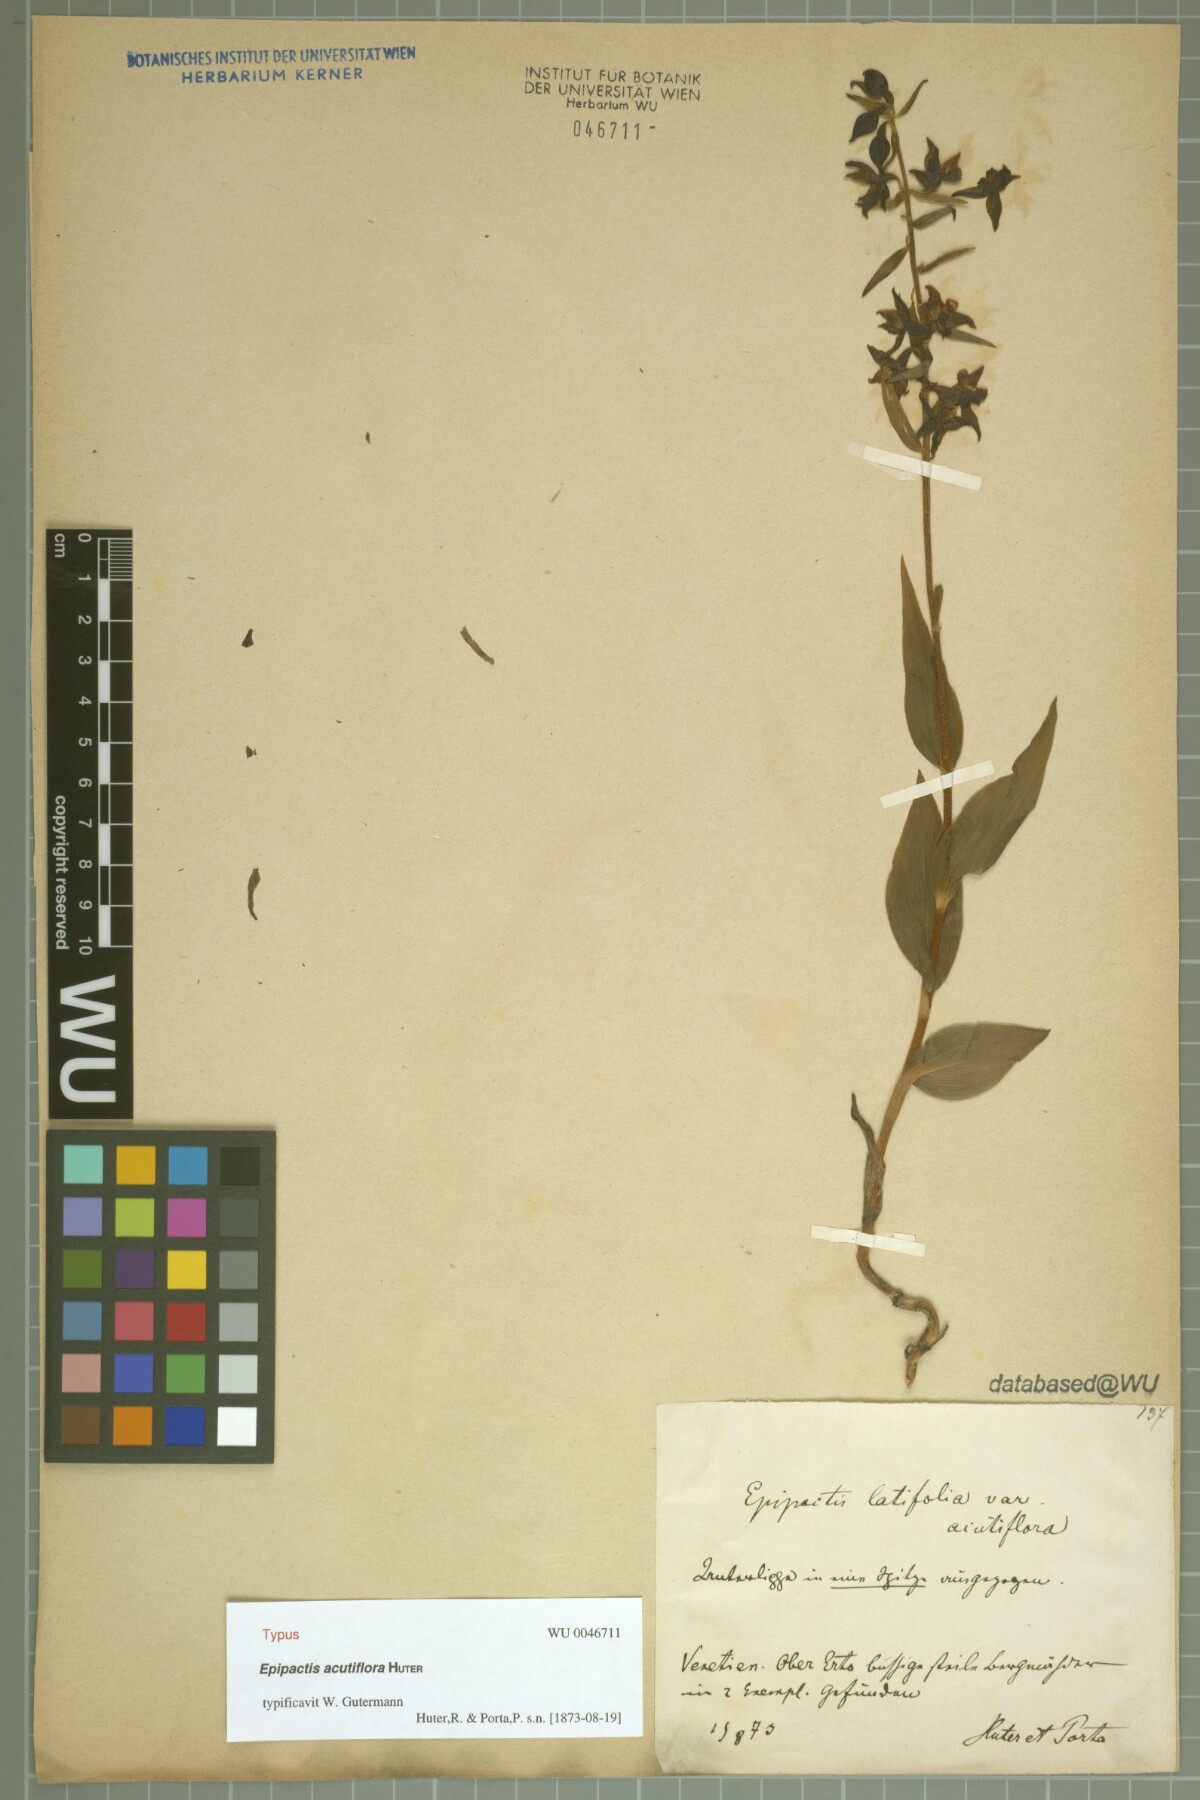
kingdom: Plantae
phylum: Tracheophyta
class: Liliopsida
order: Asparagales
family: Orchidaceae
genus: Epipactis
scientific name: Epipactis
